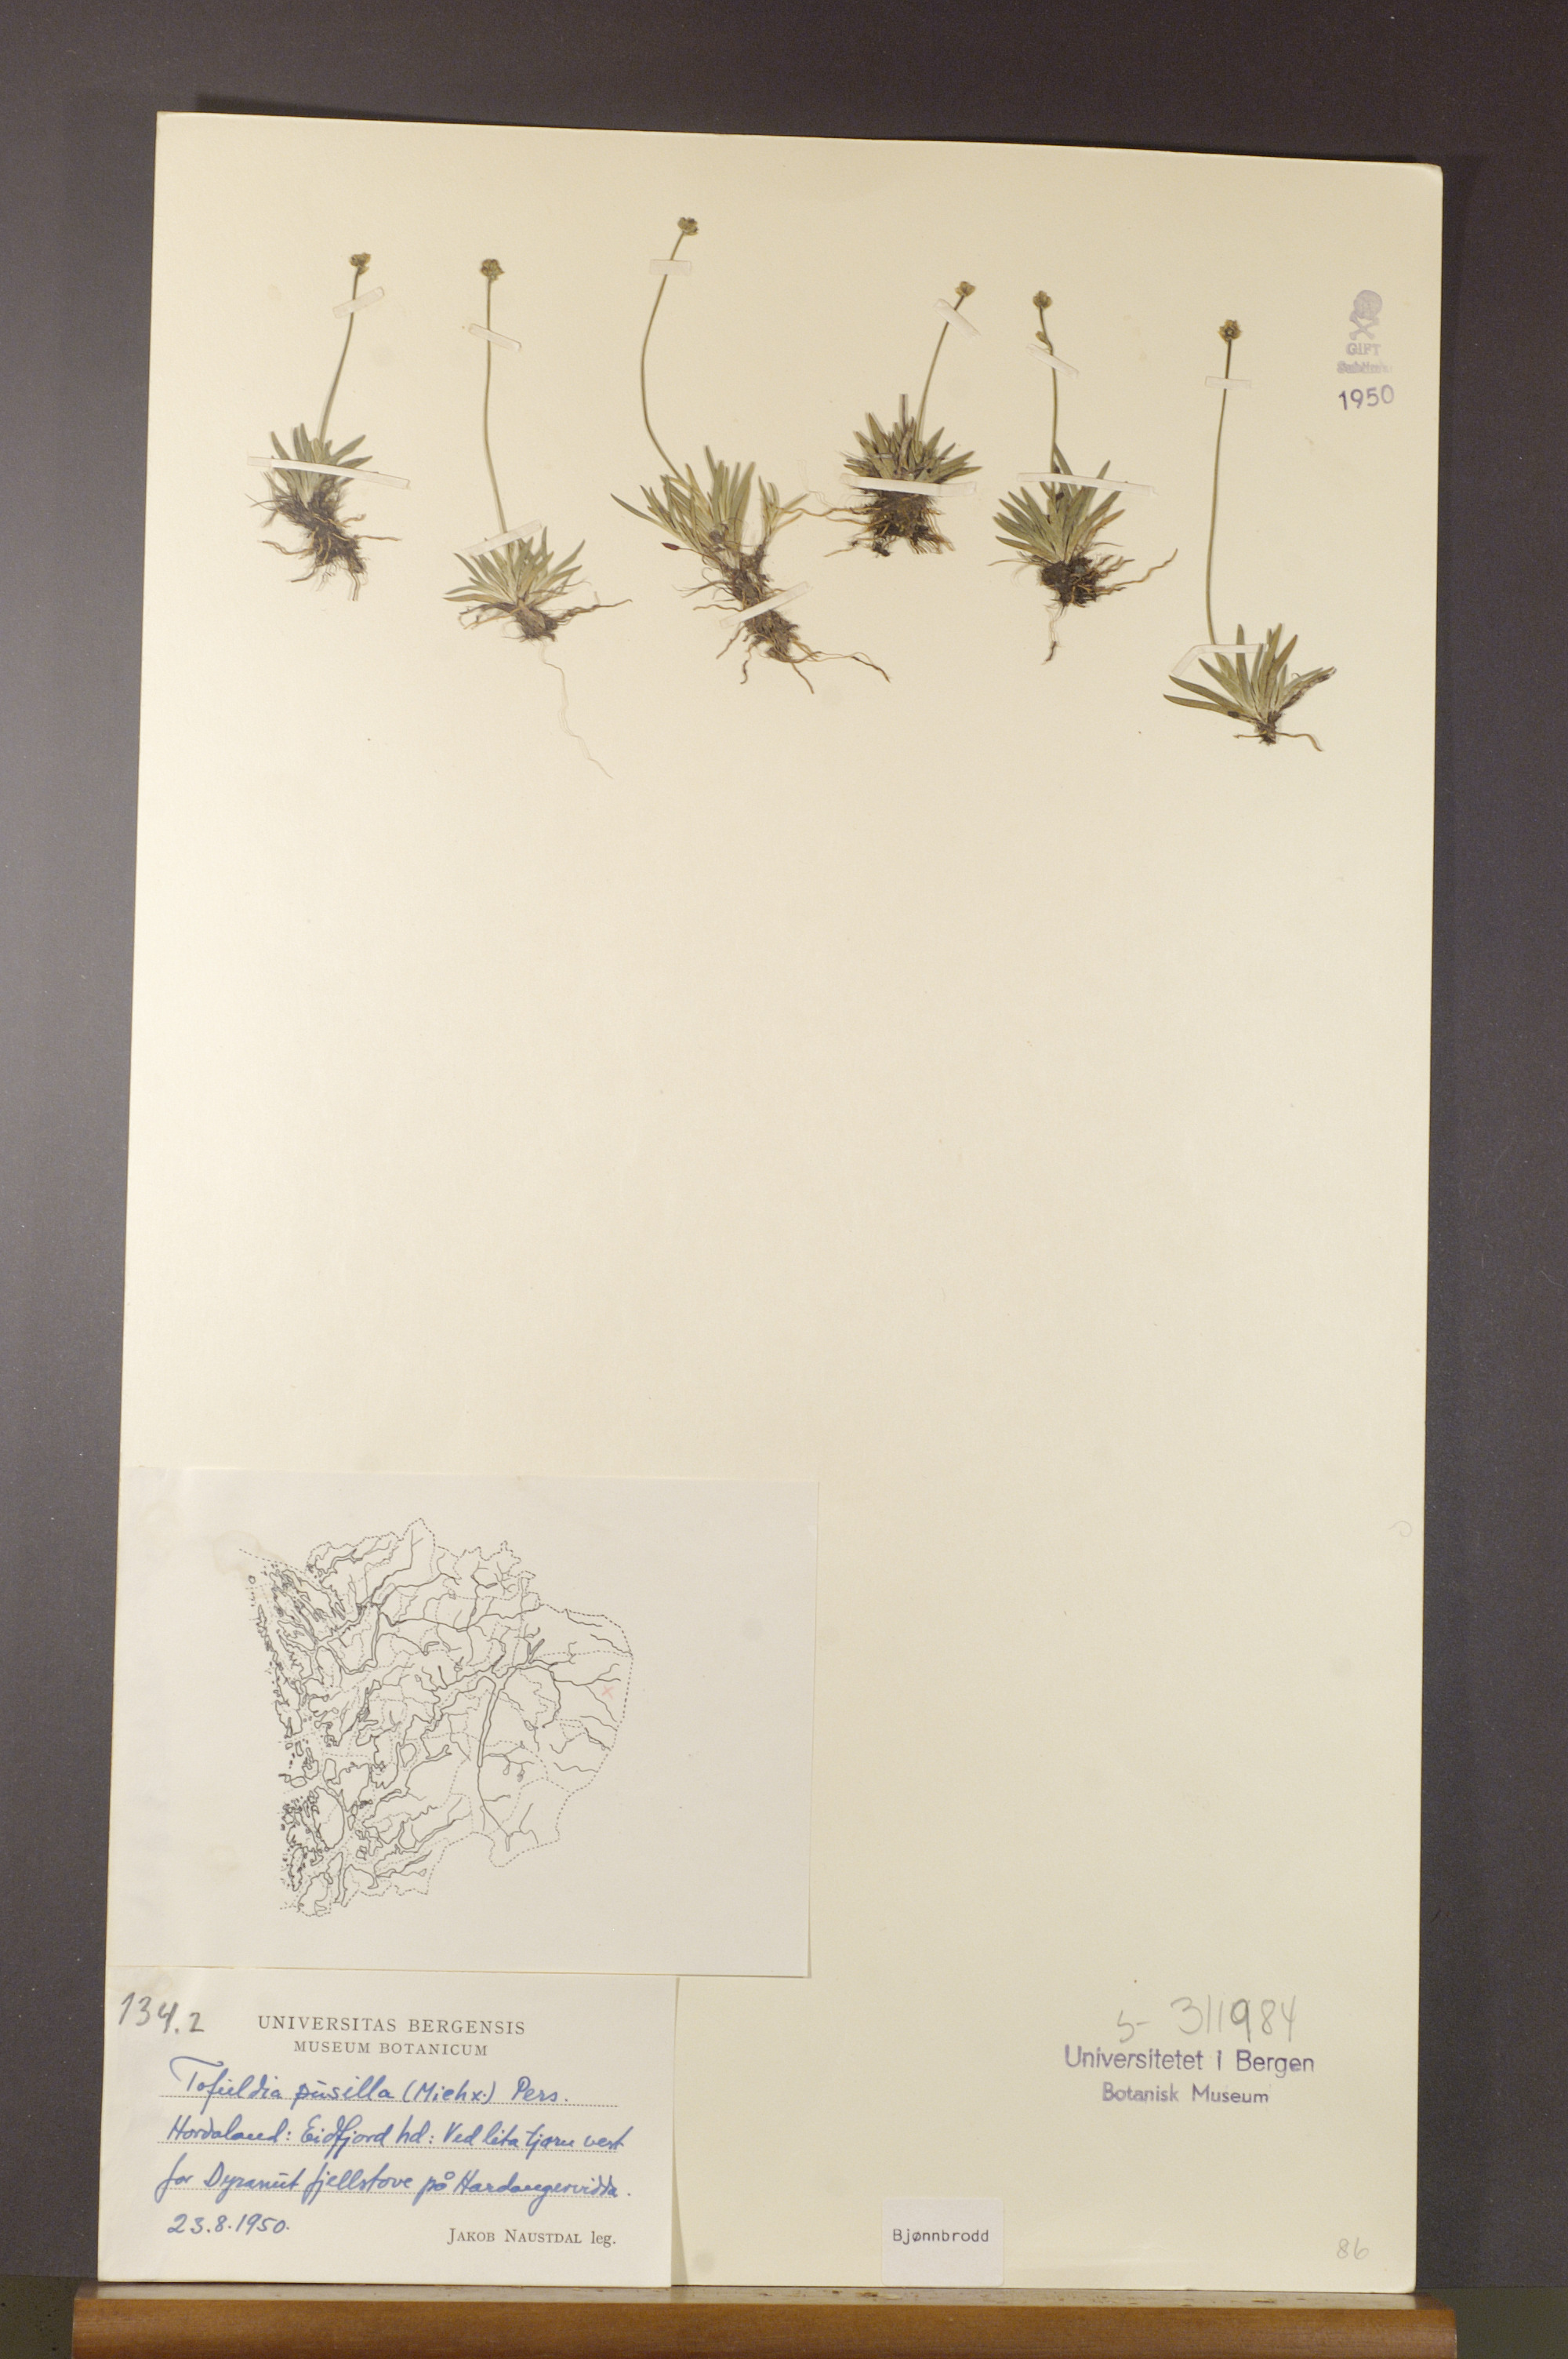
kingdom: Plantae
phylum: Tracheophyta
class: Liliopsida
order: Alismatales
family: Tofieldiaceae
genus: Tofieldia
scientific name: Tofieldia pusilla
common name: Scottish false asphodel
